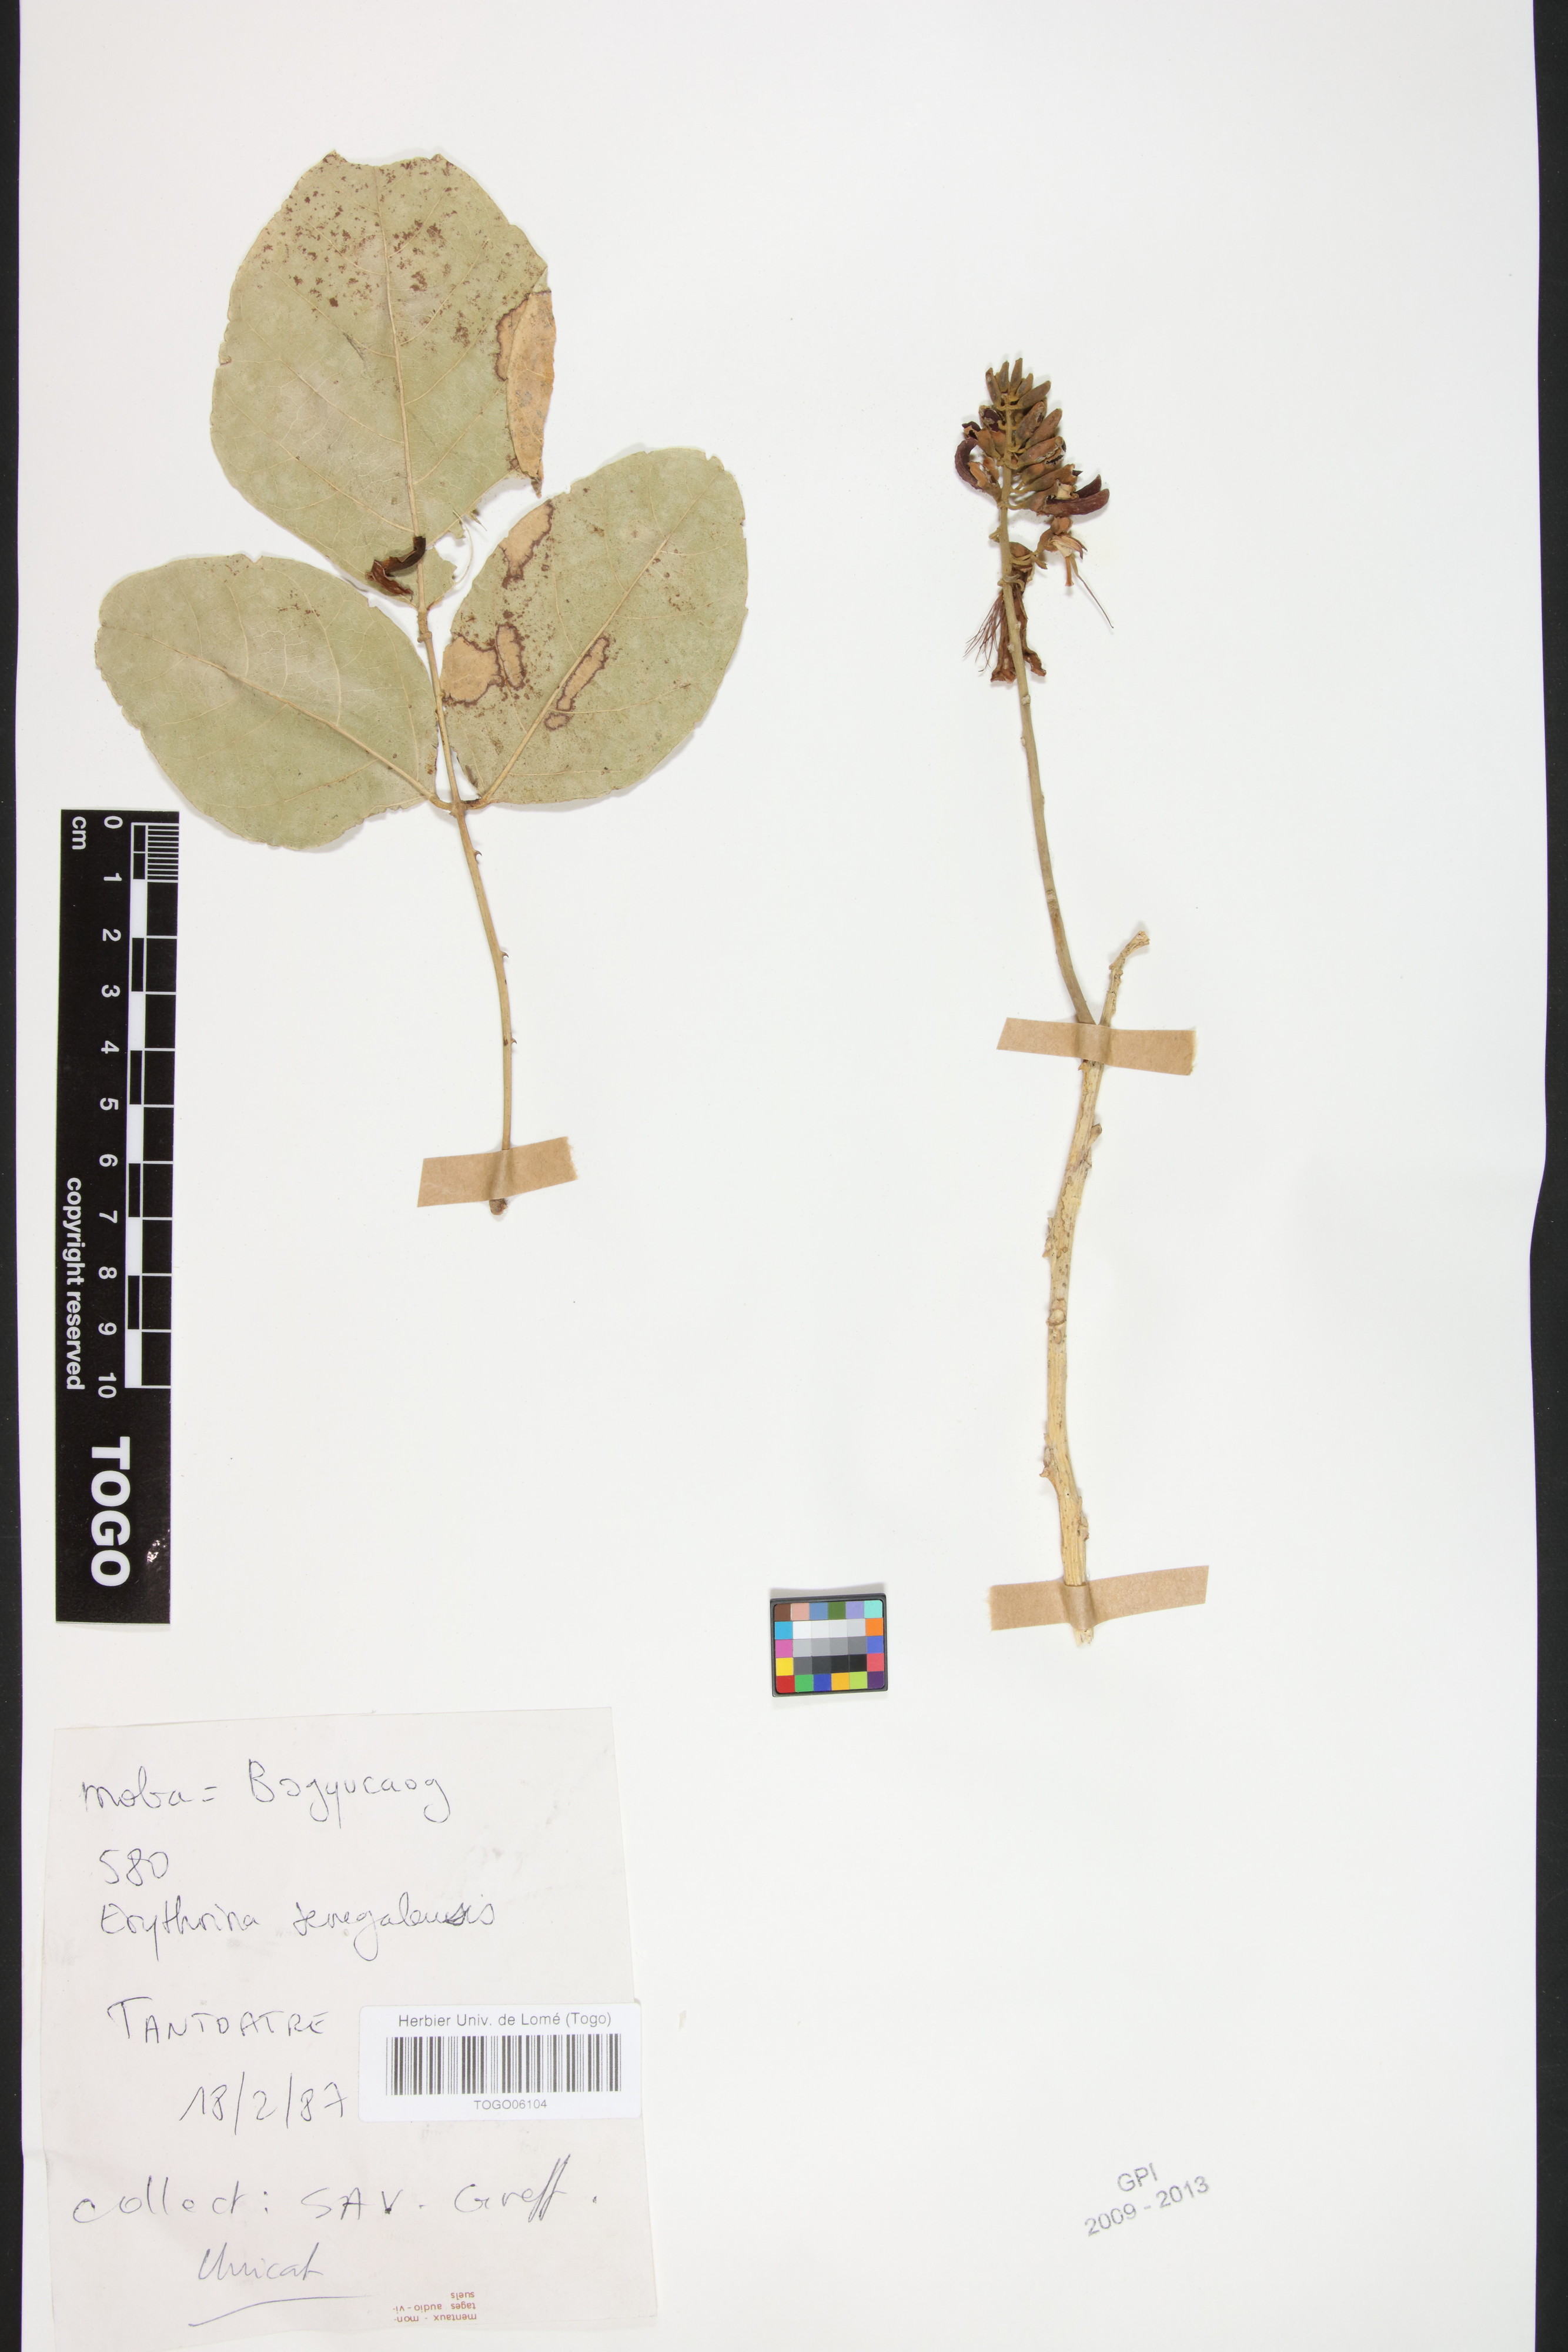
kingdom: Plantae
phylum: Tracheophyta
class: Magnoliopsida
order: Fabales
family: Fabaceae
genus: Erythrina
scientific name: Erythrina senegalensis
